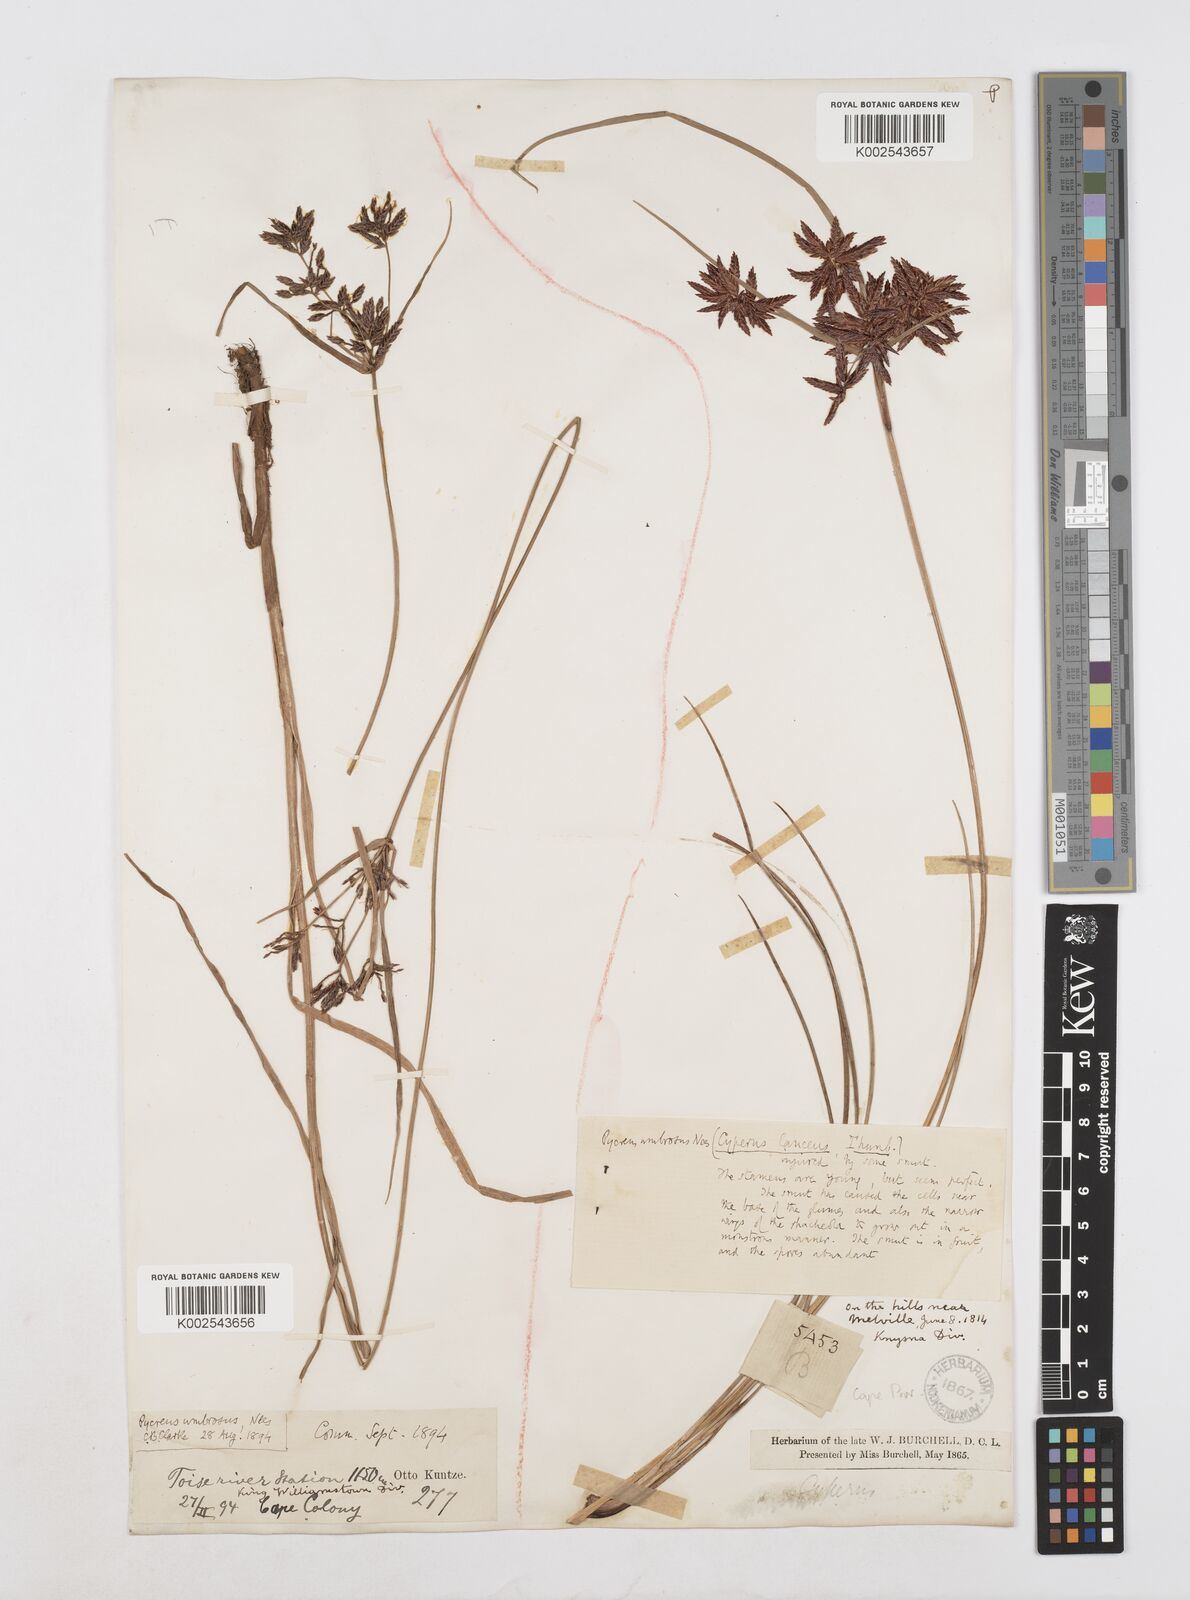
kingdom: Plantae
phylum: Tracheophyta
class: Liliopsida
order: Poales
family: Cyperaceae
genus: Cyperus
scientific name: Cyperus nitidus
